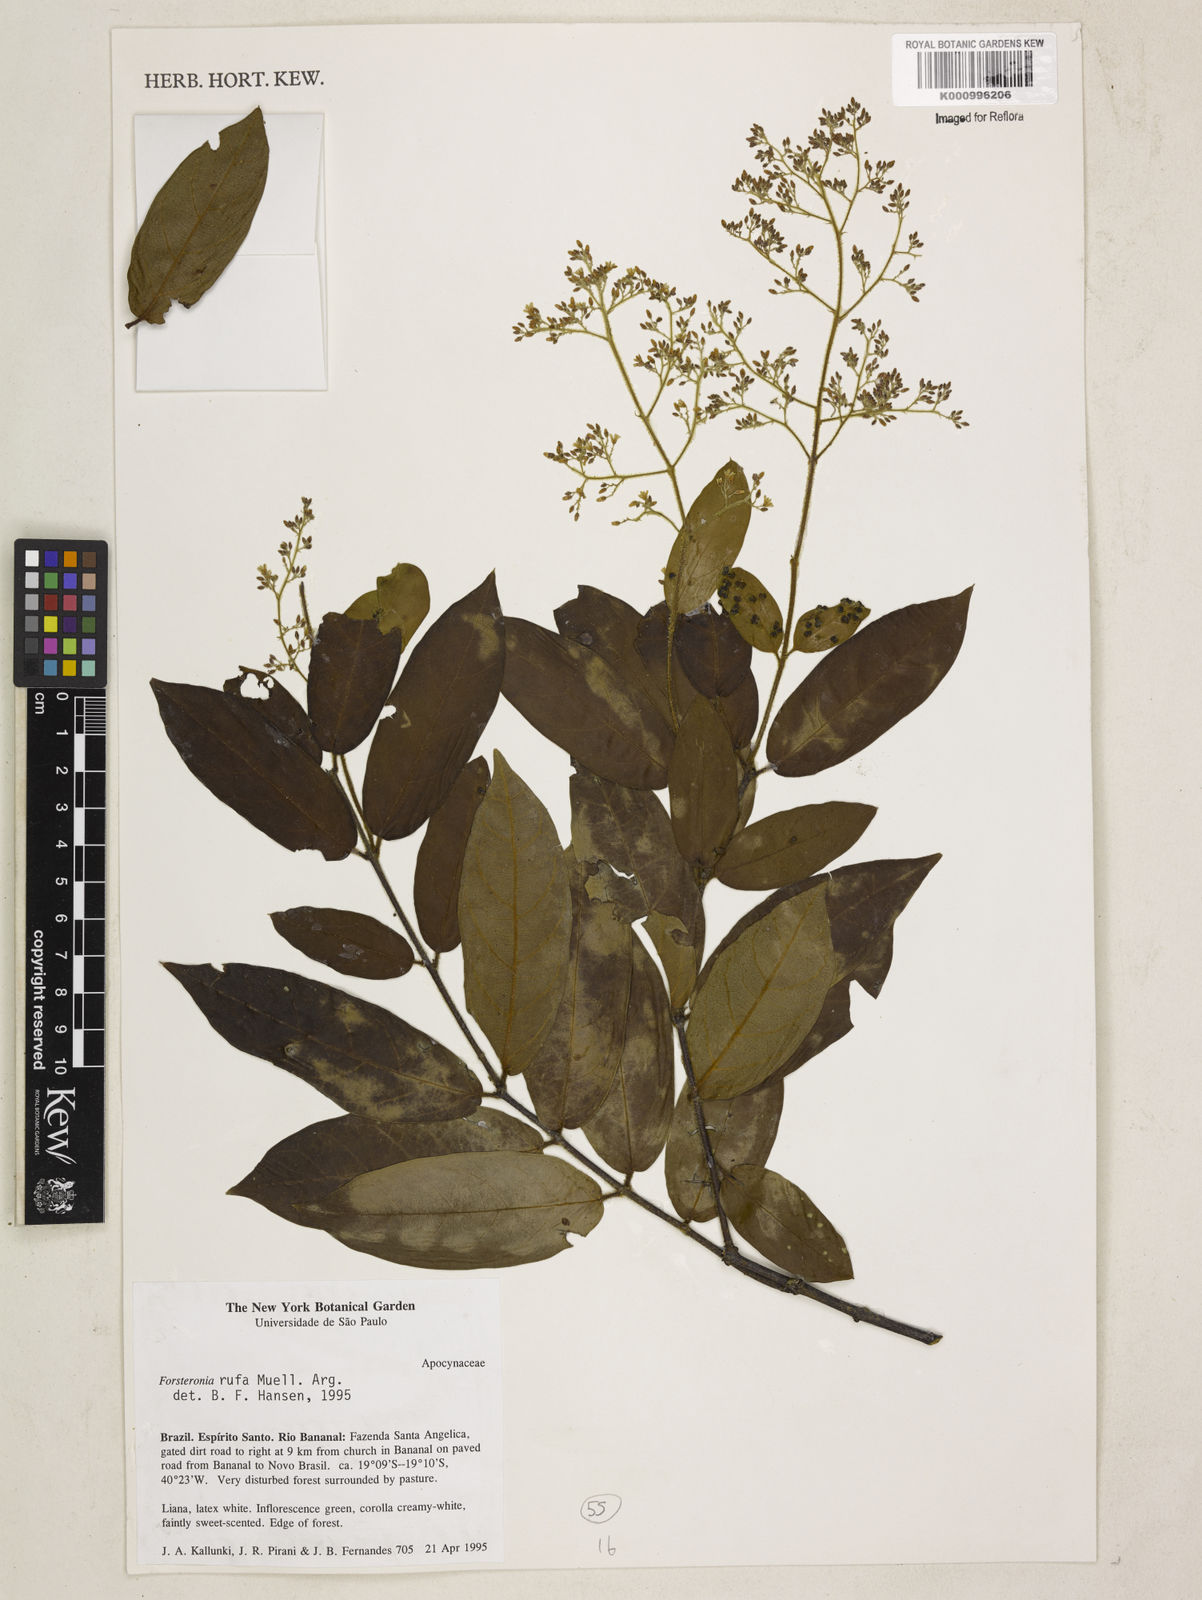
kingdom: Plantae
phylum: Tracheophyta
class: Magnoliopsida
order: Gentianales
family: Apocynaceae
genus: Forsteronia
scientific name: Forsteronia
